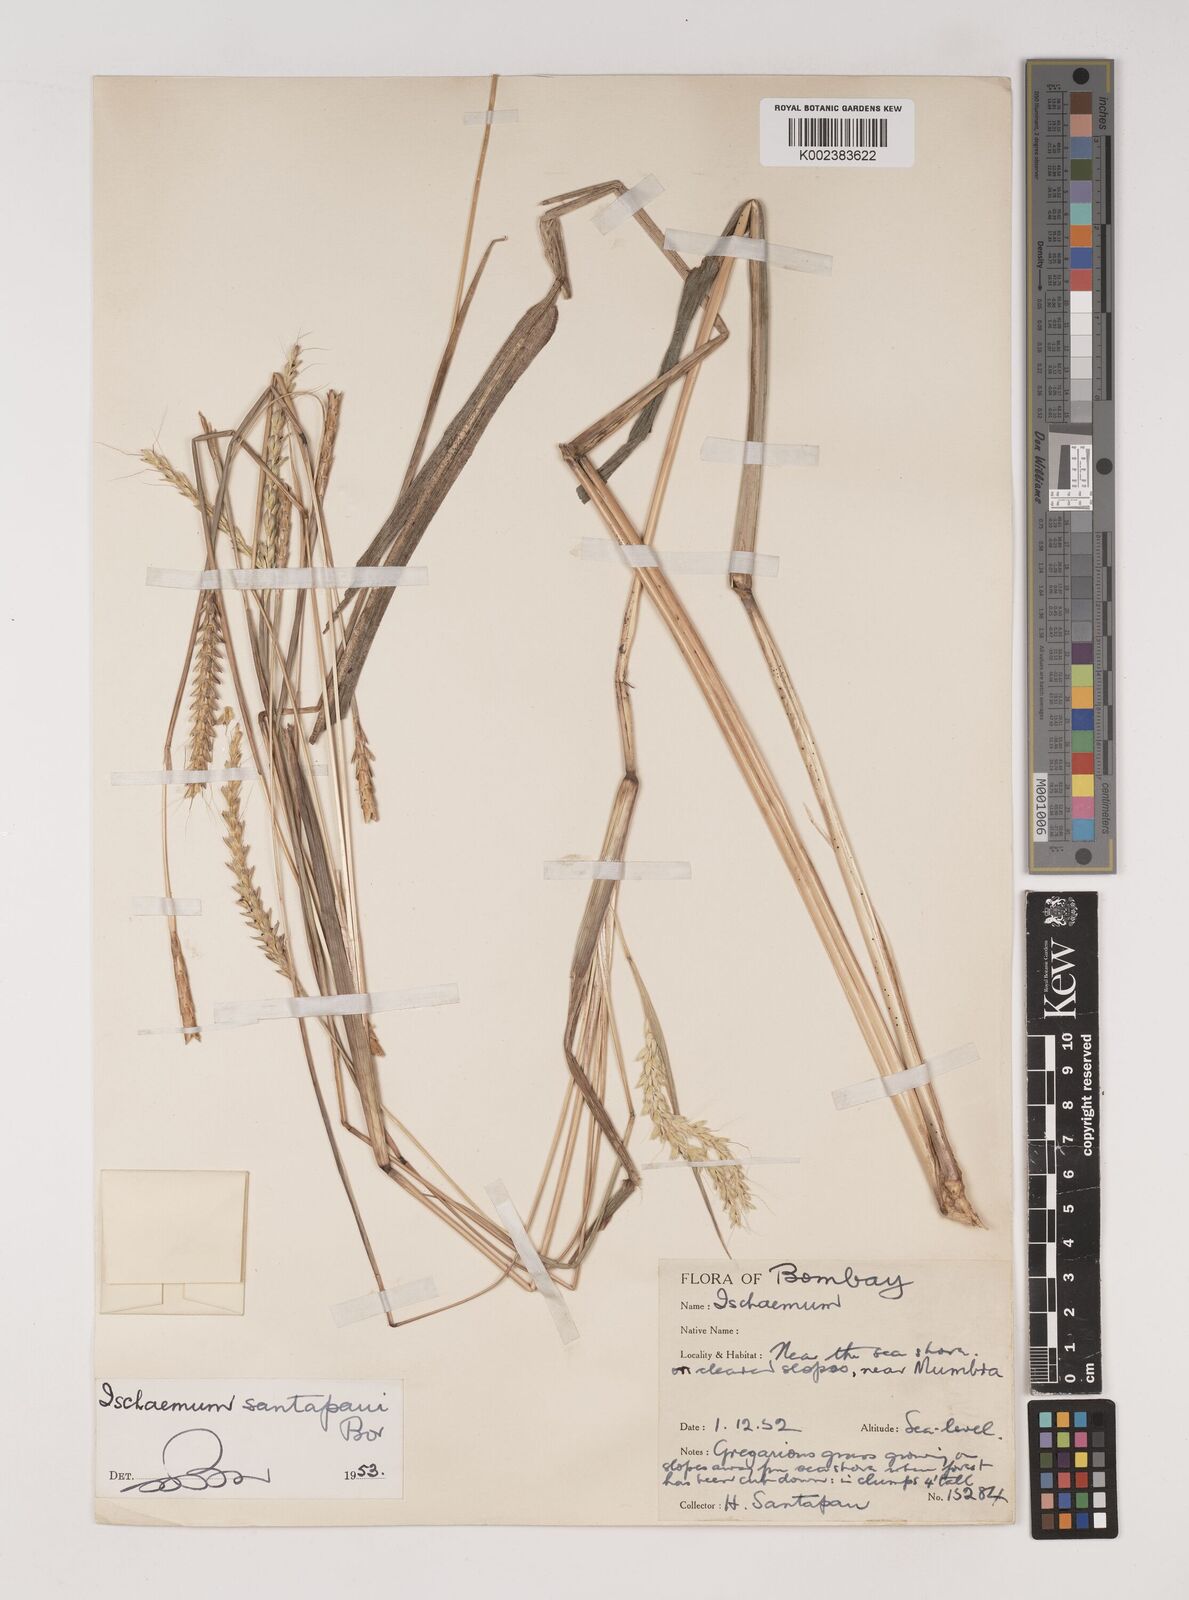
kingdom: Plantae
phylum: Tracheophyta
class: Liliopsida
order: Poales
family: Poaceae
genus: Ischaemum
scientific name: Ischaemum santapaui
